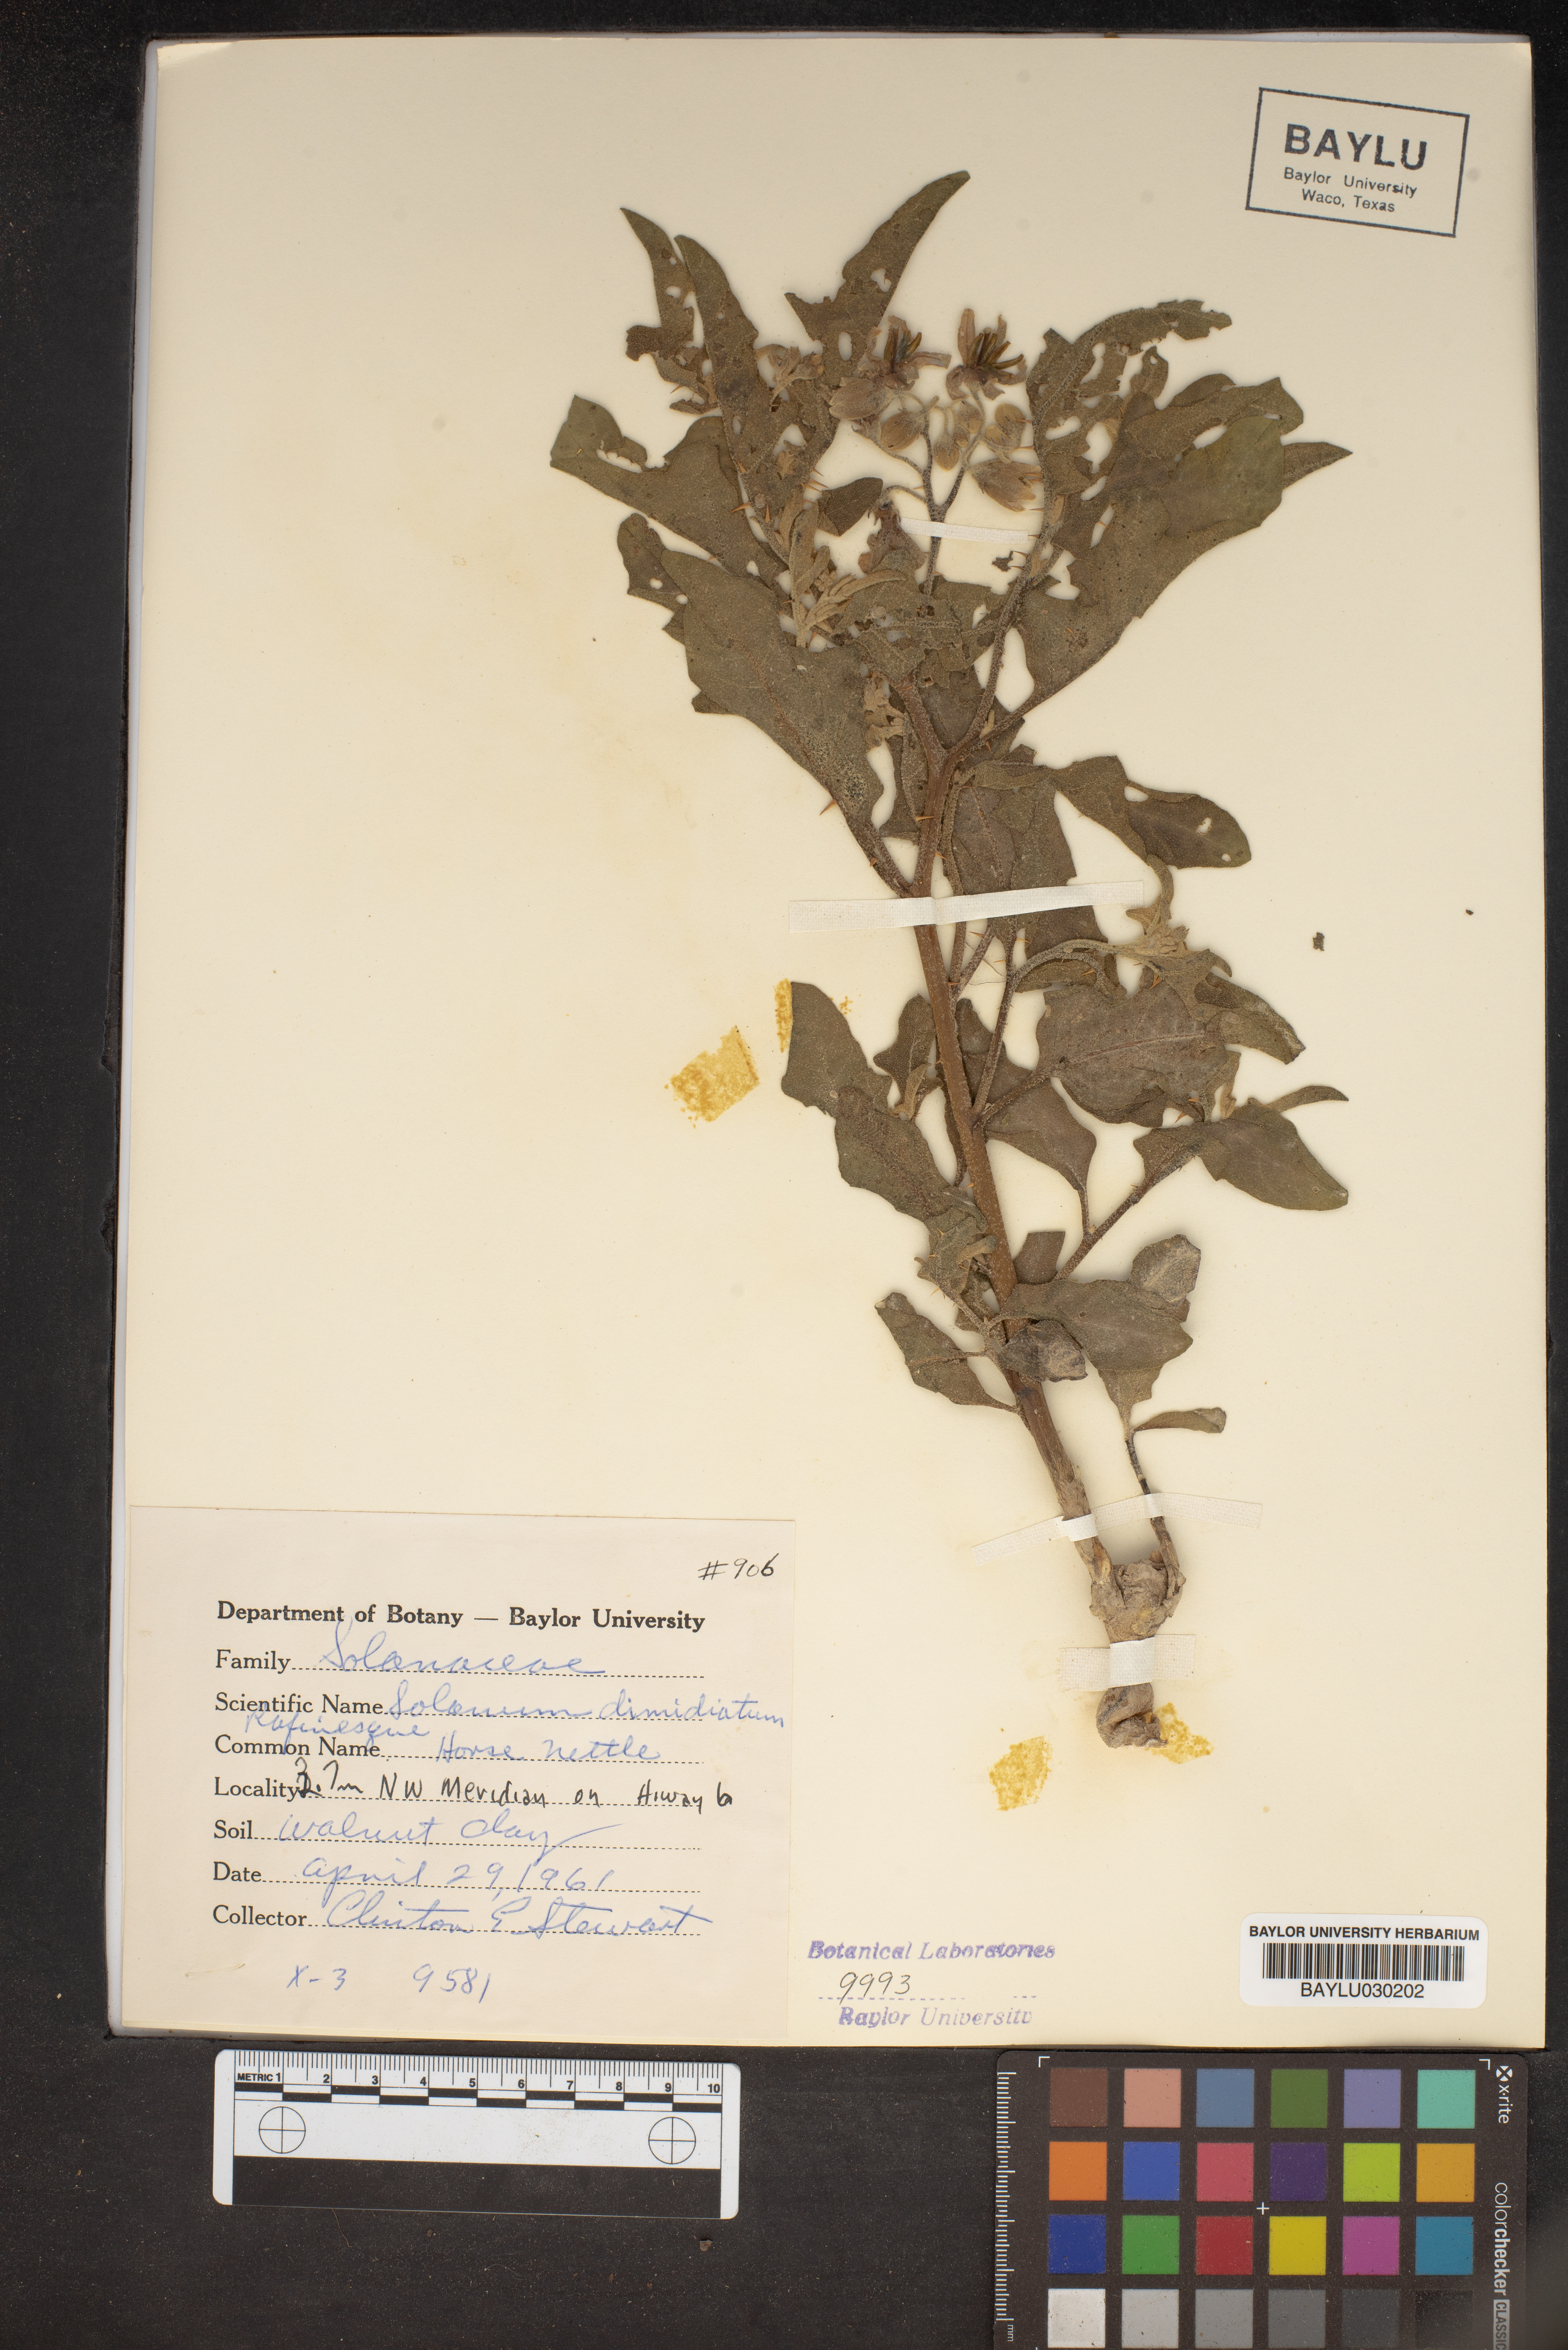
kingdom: Plantae
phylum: Tracheophyta
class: Magnoliopsida
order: Solanales
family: Solanaceae
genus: Solanum
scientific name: Solanum dimidiatum
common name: Carolina horse-nettle
